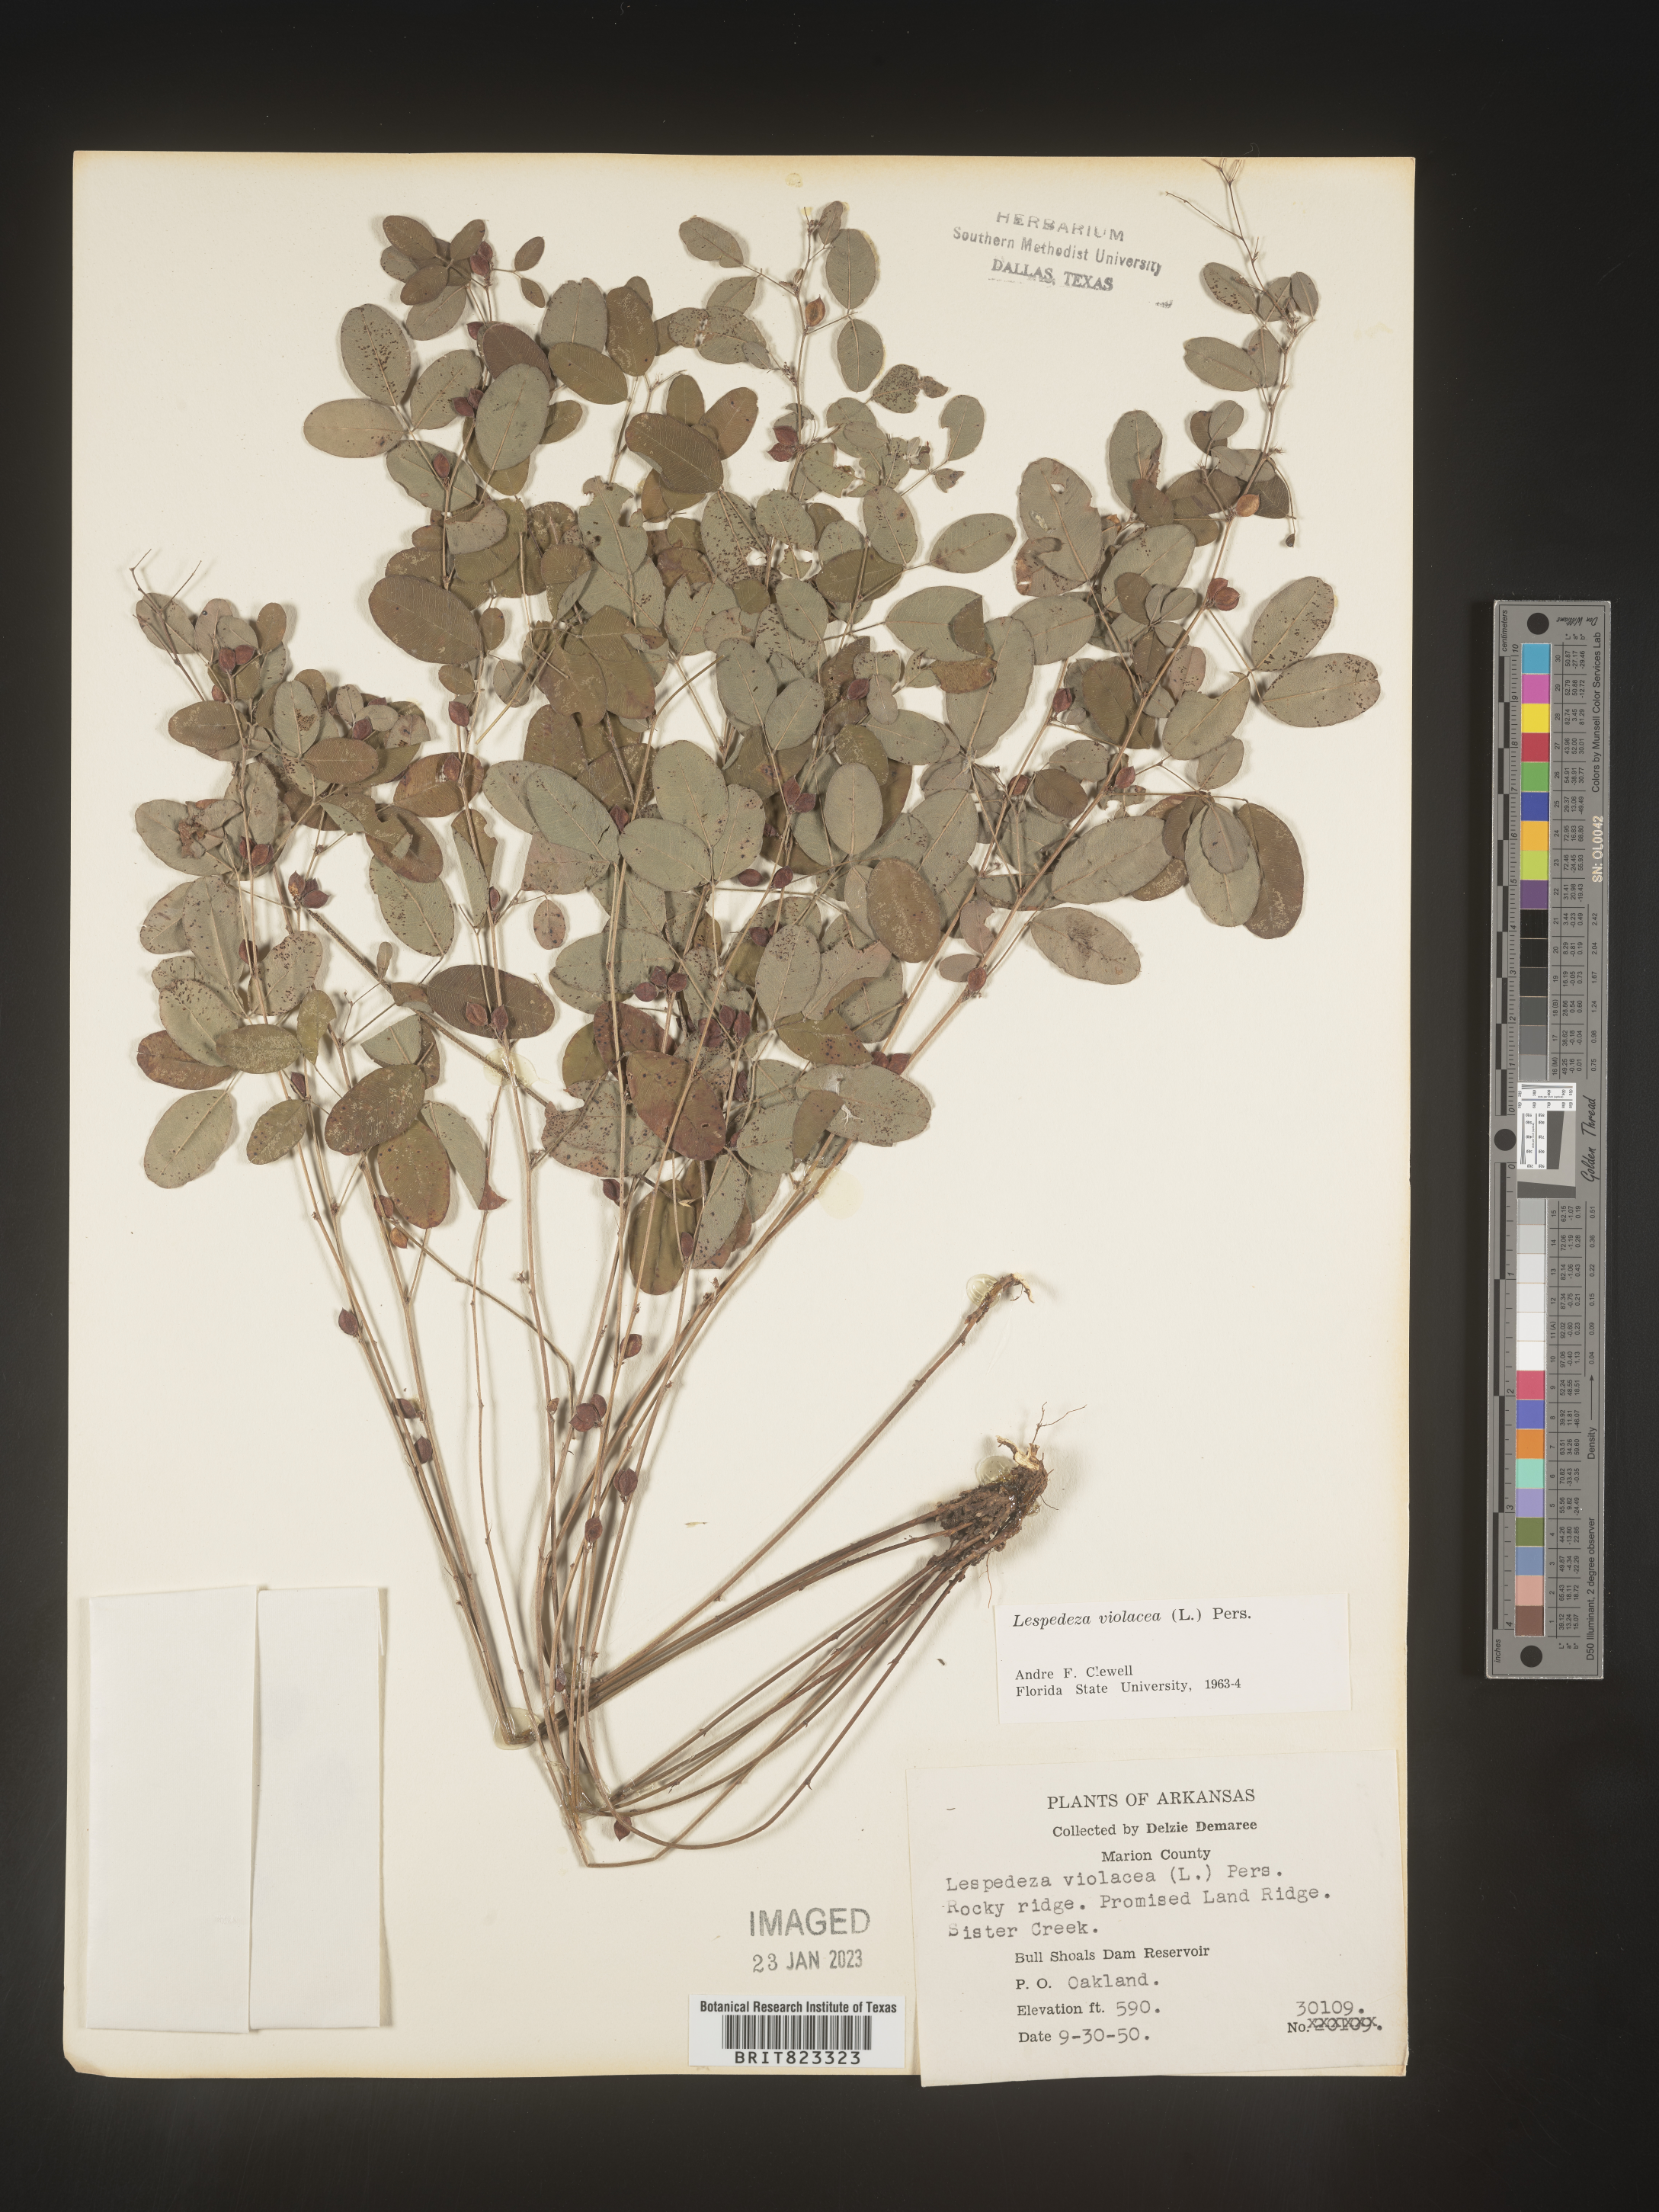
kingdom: Plantae
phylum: Tracheophyta
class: Magnoliopsida
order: Fabales
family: Fabaceae
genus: Lespedeza
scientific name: Lespedeza violacea
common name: Wand bush-clover
